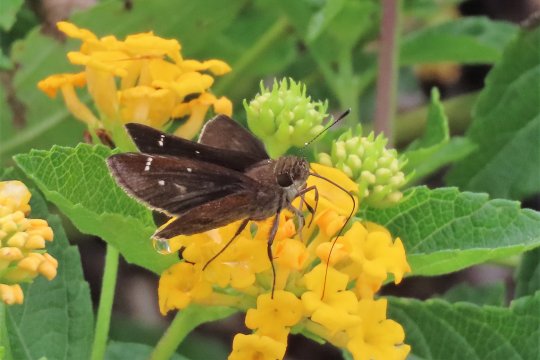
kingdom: Animalia
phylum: Arthropoda
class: Insecta
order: Lepidoptera
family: Hesperiidae
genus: Lerema
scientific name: Lerema accius
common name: Clouded Skipper
